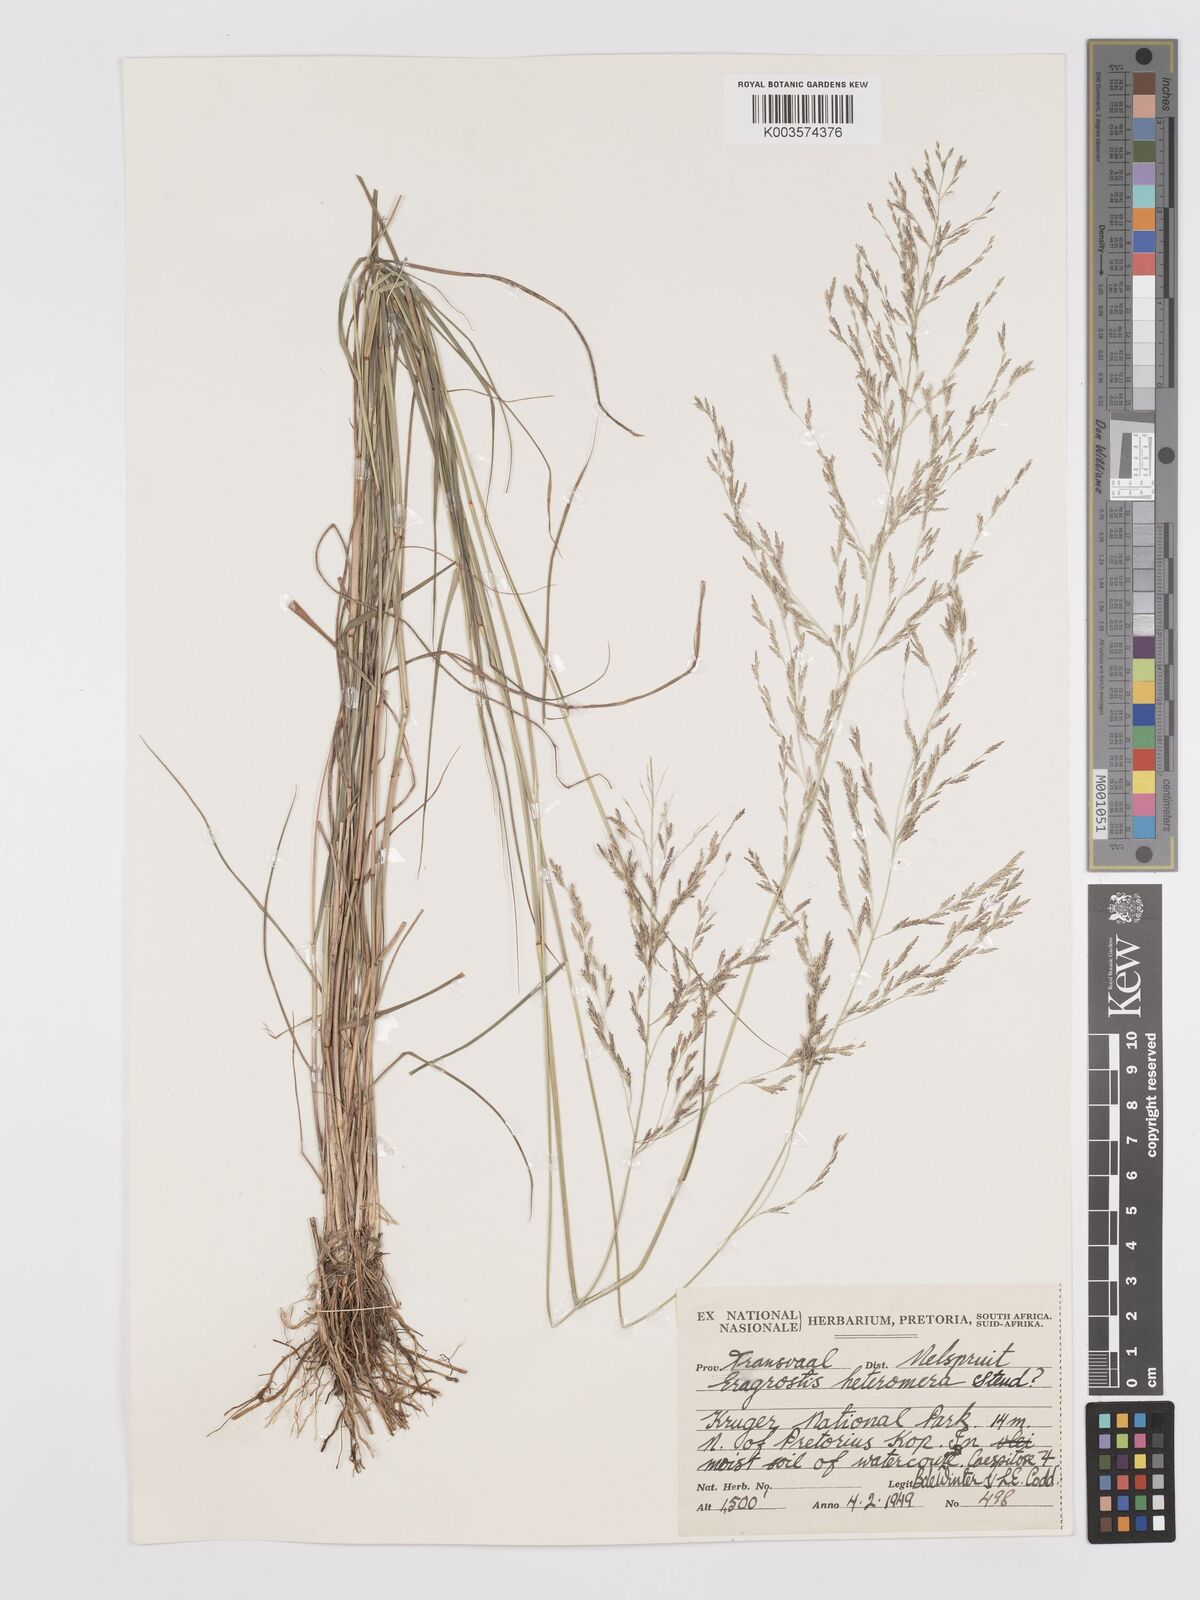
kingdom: Plantae
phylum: Tracheophyta
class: Liliopsida
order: Poales
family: Poaceae
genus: Eragrostis
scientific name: Eragrostis heteromera
